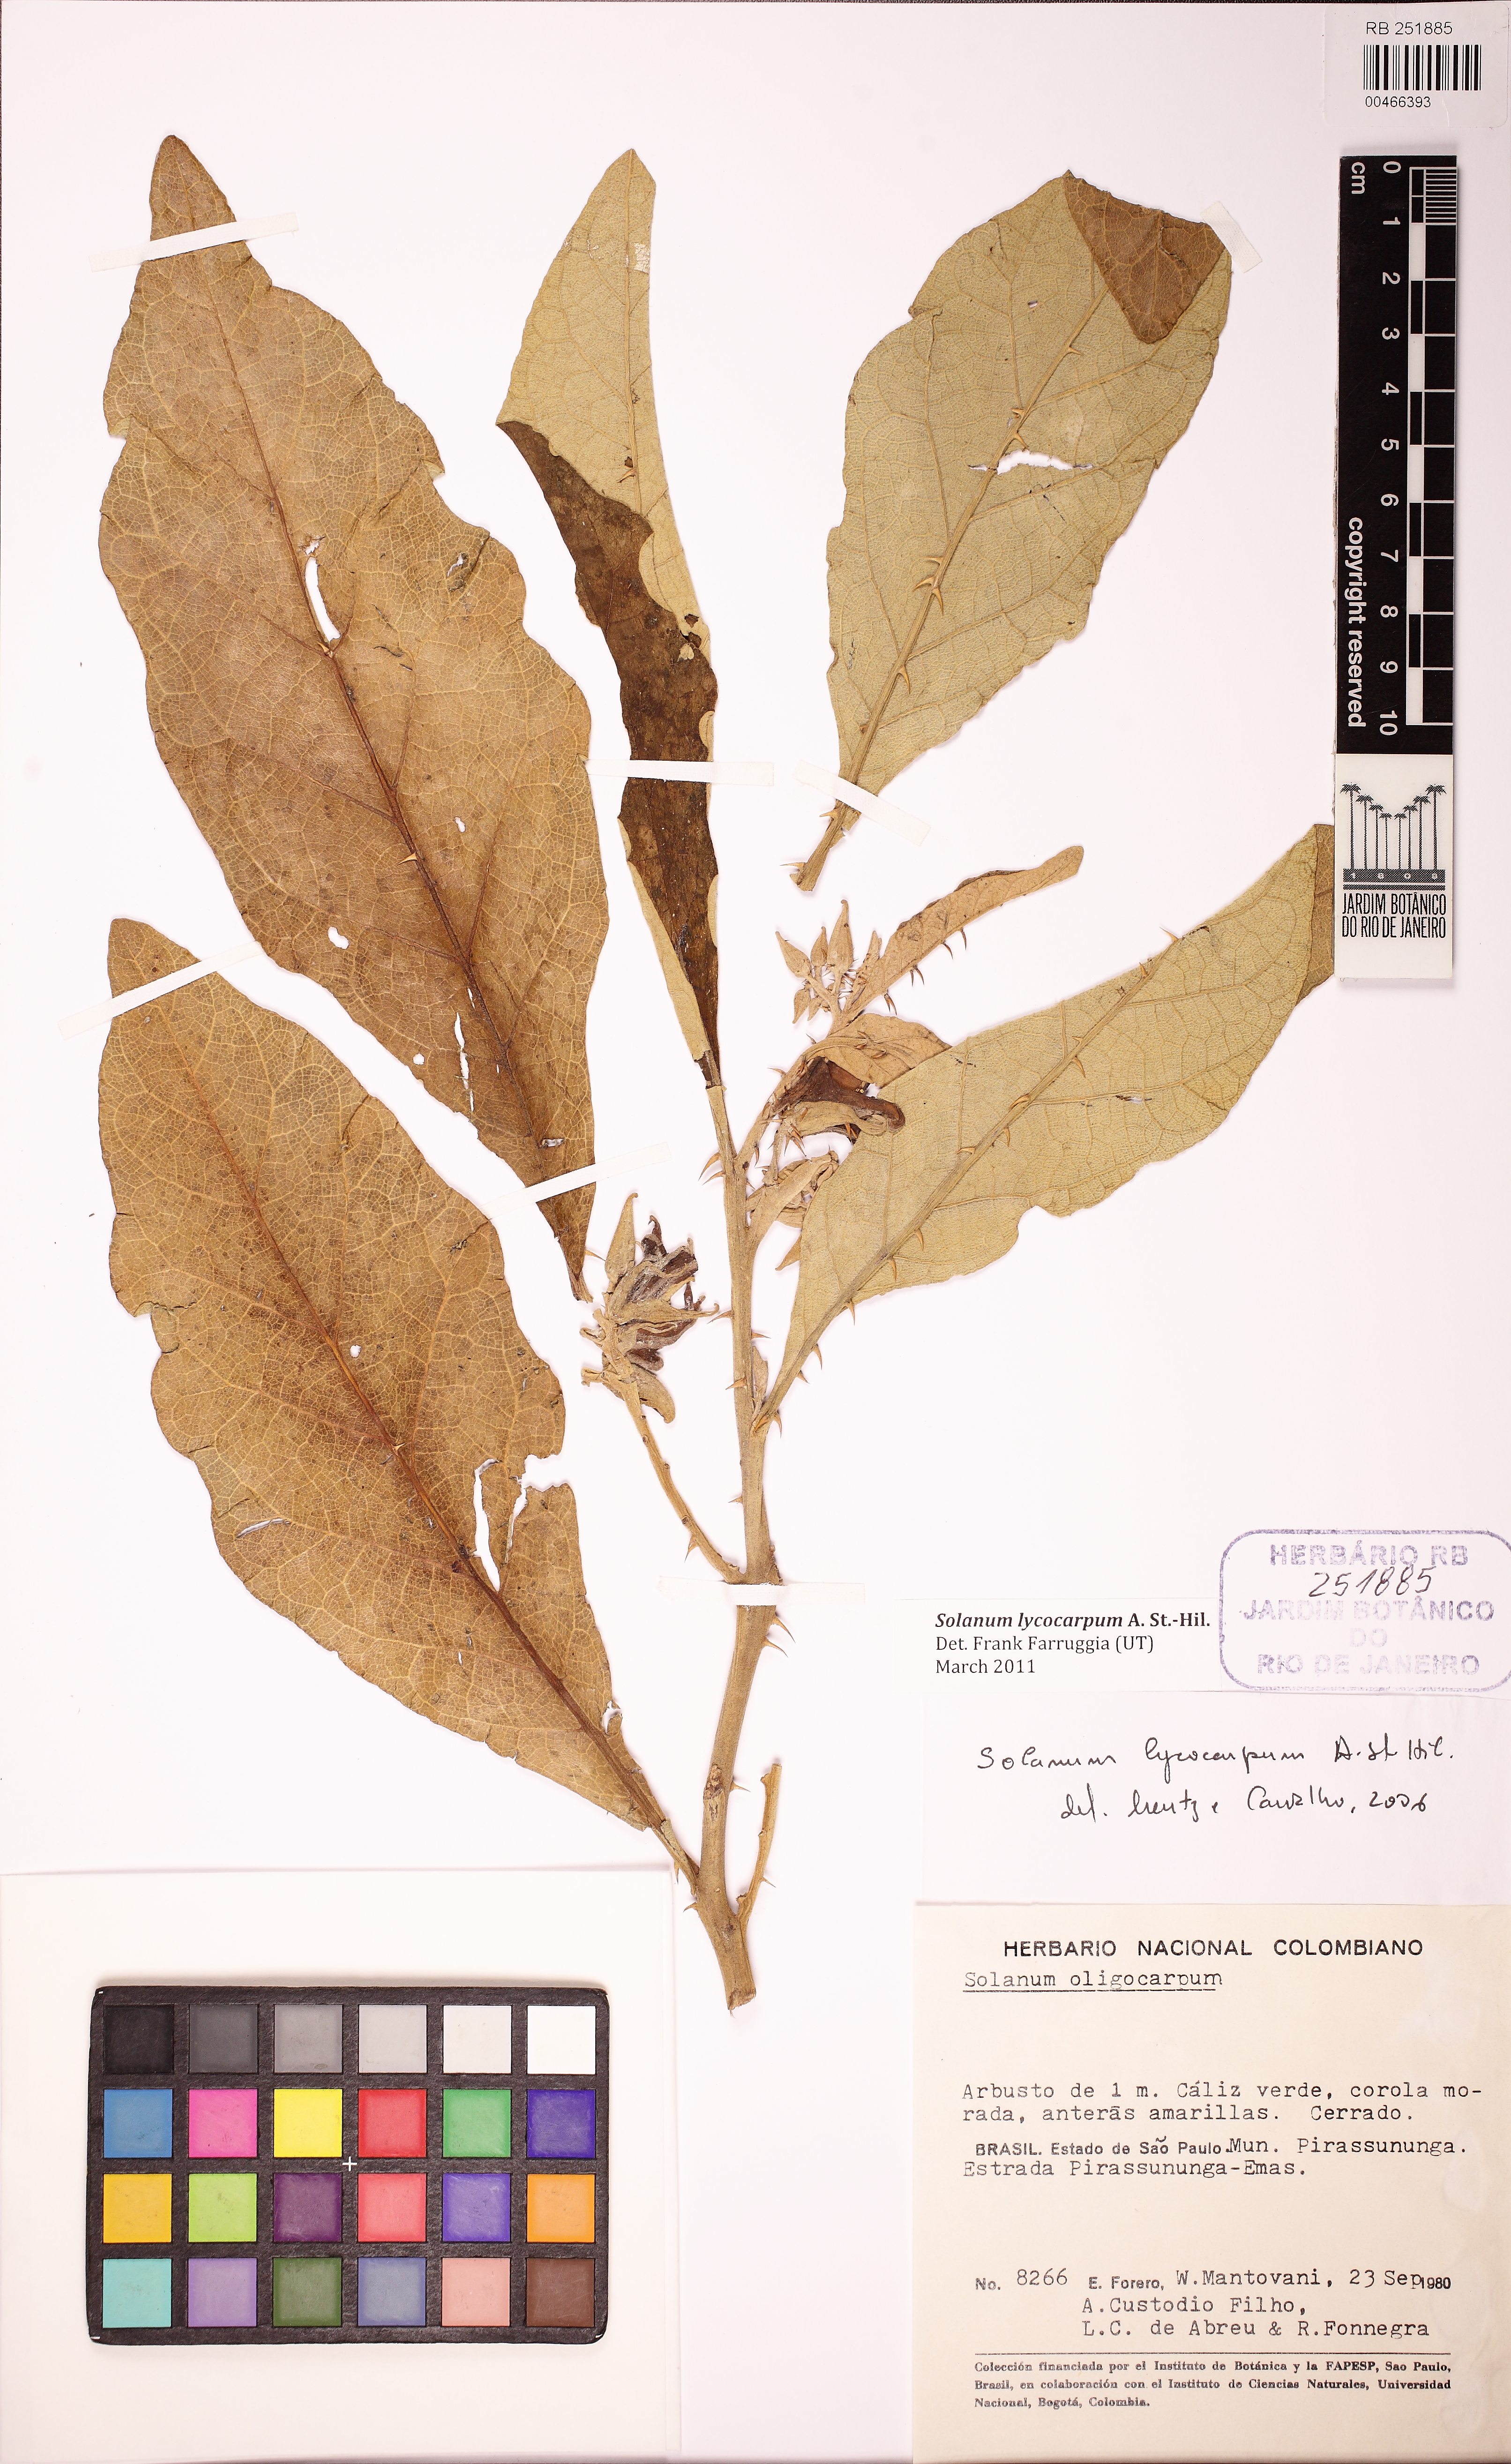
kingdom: Plantae
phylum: Tracheophyta
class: Magnoliopsida
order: Solanales
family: Solanaceae
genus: Solanum
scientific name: Solanum lycocarpum
